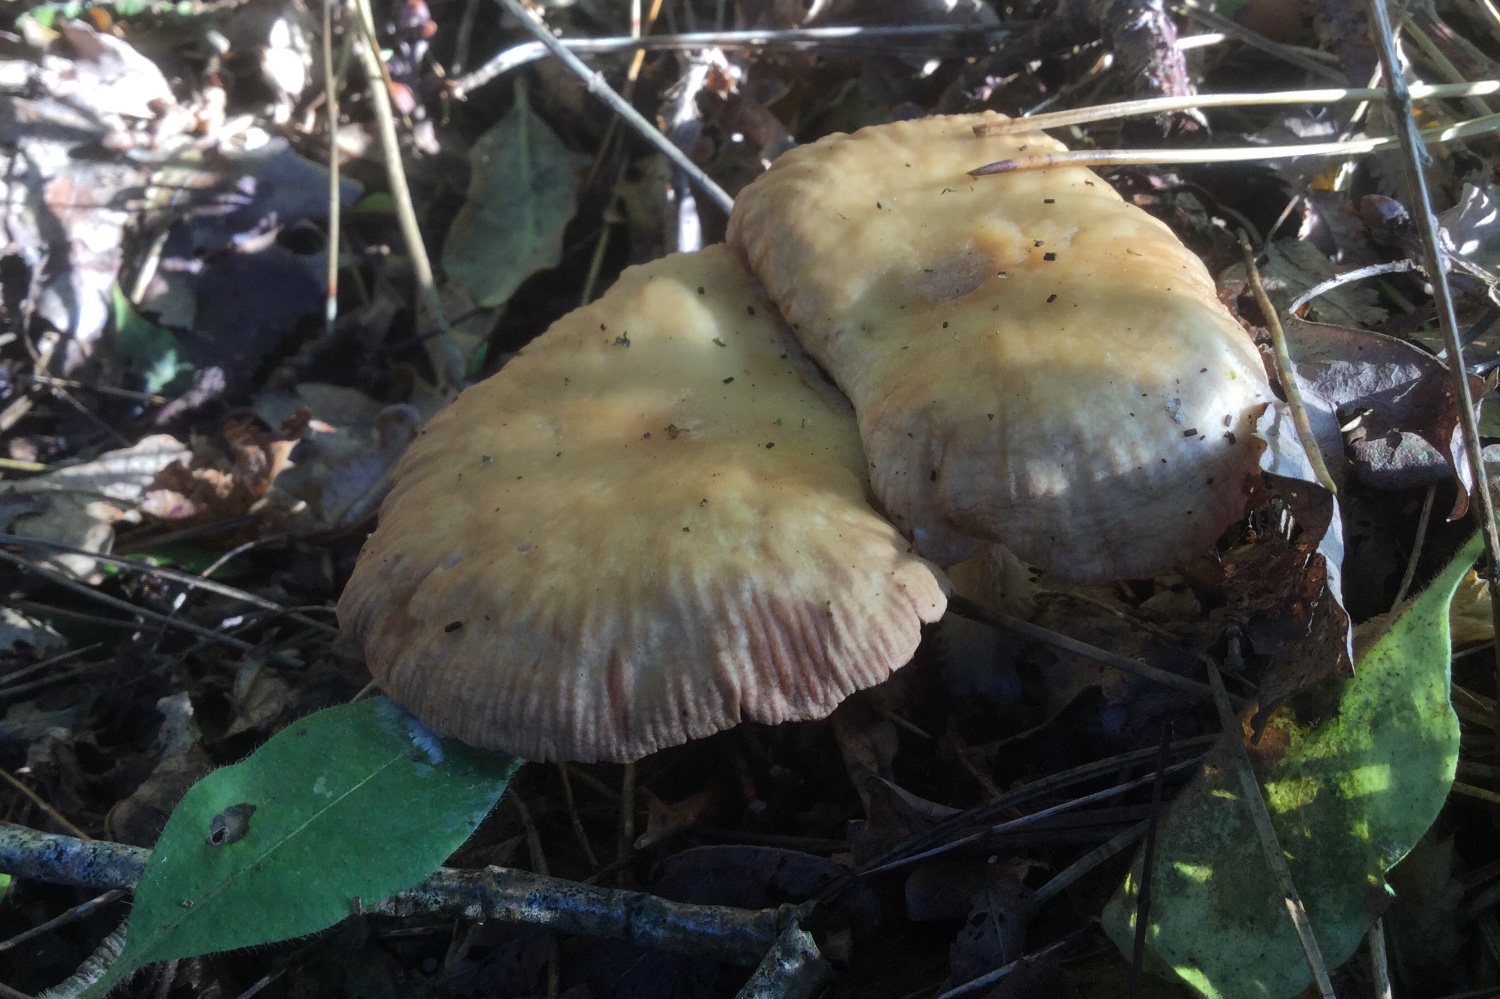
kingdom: Fungi
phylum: Basidiomycota
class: Agaricomycetes
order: Agaricales
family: Omphalotaceae
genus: Collybiopsis
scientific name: Collybiopsis peronata
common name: bestøvlet fladhat
